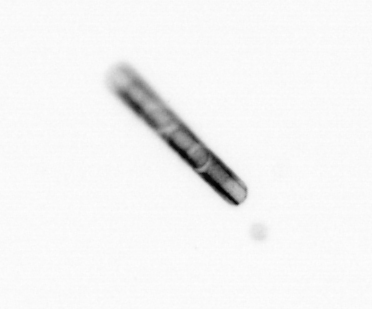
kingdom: Chromista
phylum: Ochrophyta
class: Bacillariophyceae
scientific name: Bacillariophyceae
